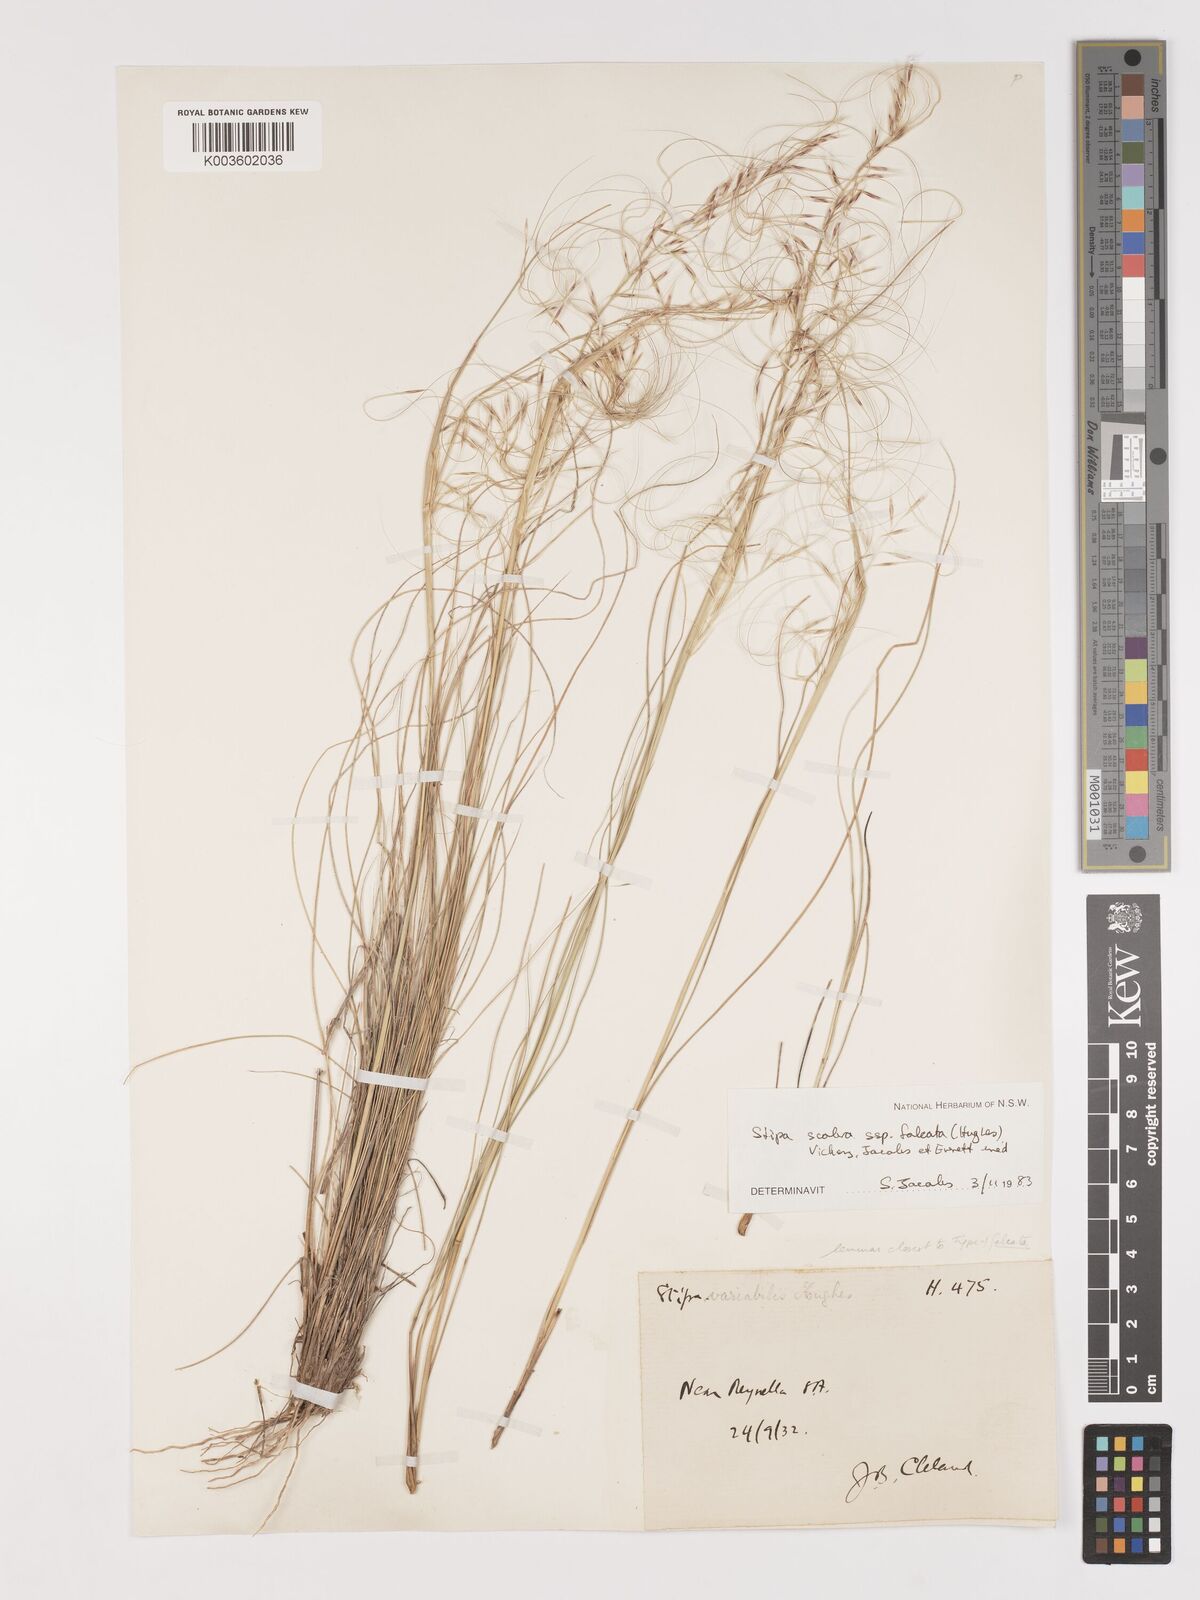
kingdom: Plantae
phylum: Tracheophyta
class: Liliopsida
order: Poales
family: Poaceae
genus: Austrostipa
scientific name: Austrostipa scabra
